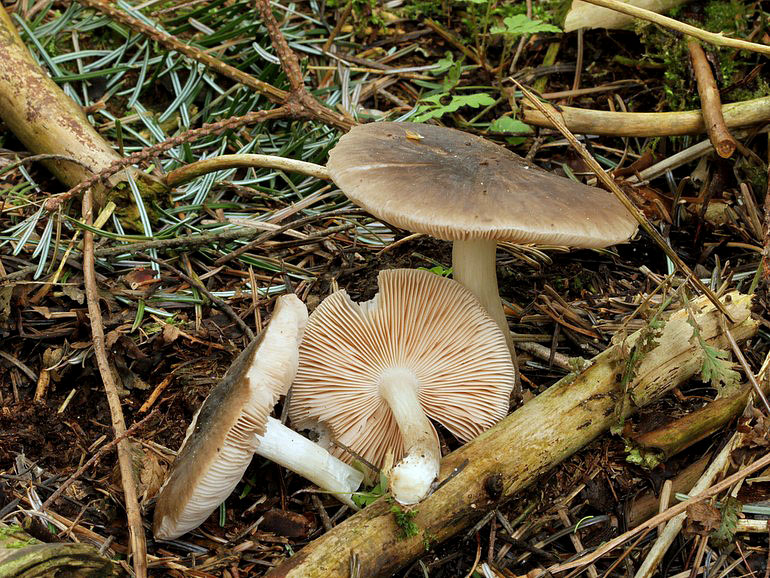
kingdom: Fungi
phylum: Basidiomycota
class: Agaricomycetes
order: Agaricales
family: Pluteaceae
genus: Pluteus
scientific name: Pluteus cervinus
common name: sodfarvet skærmhat
